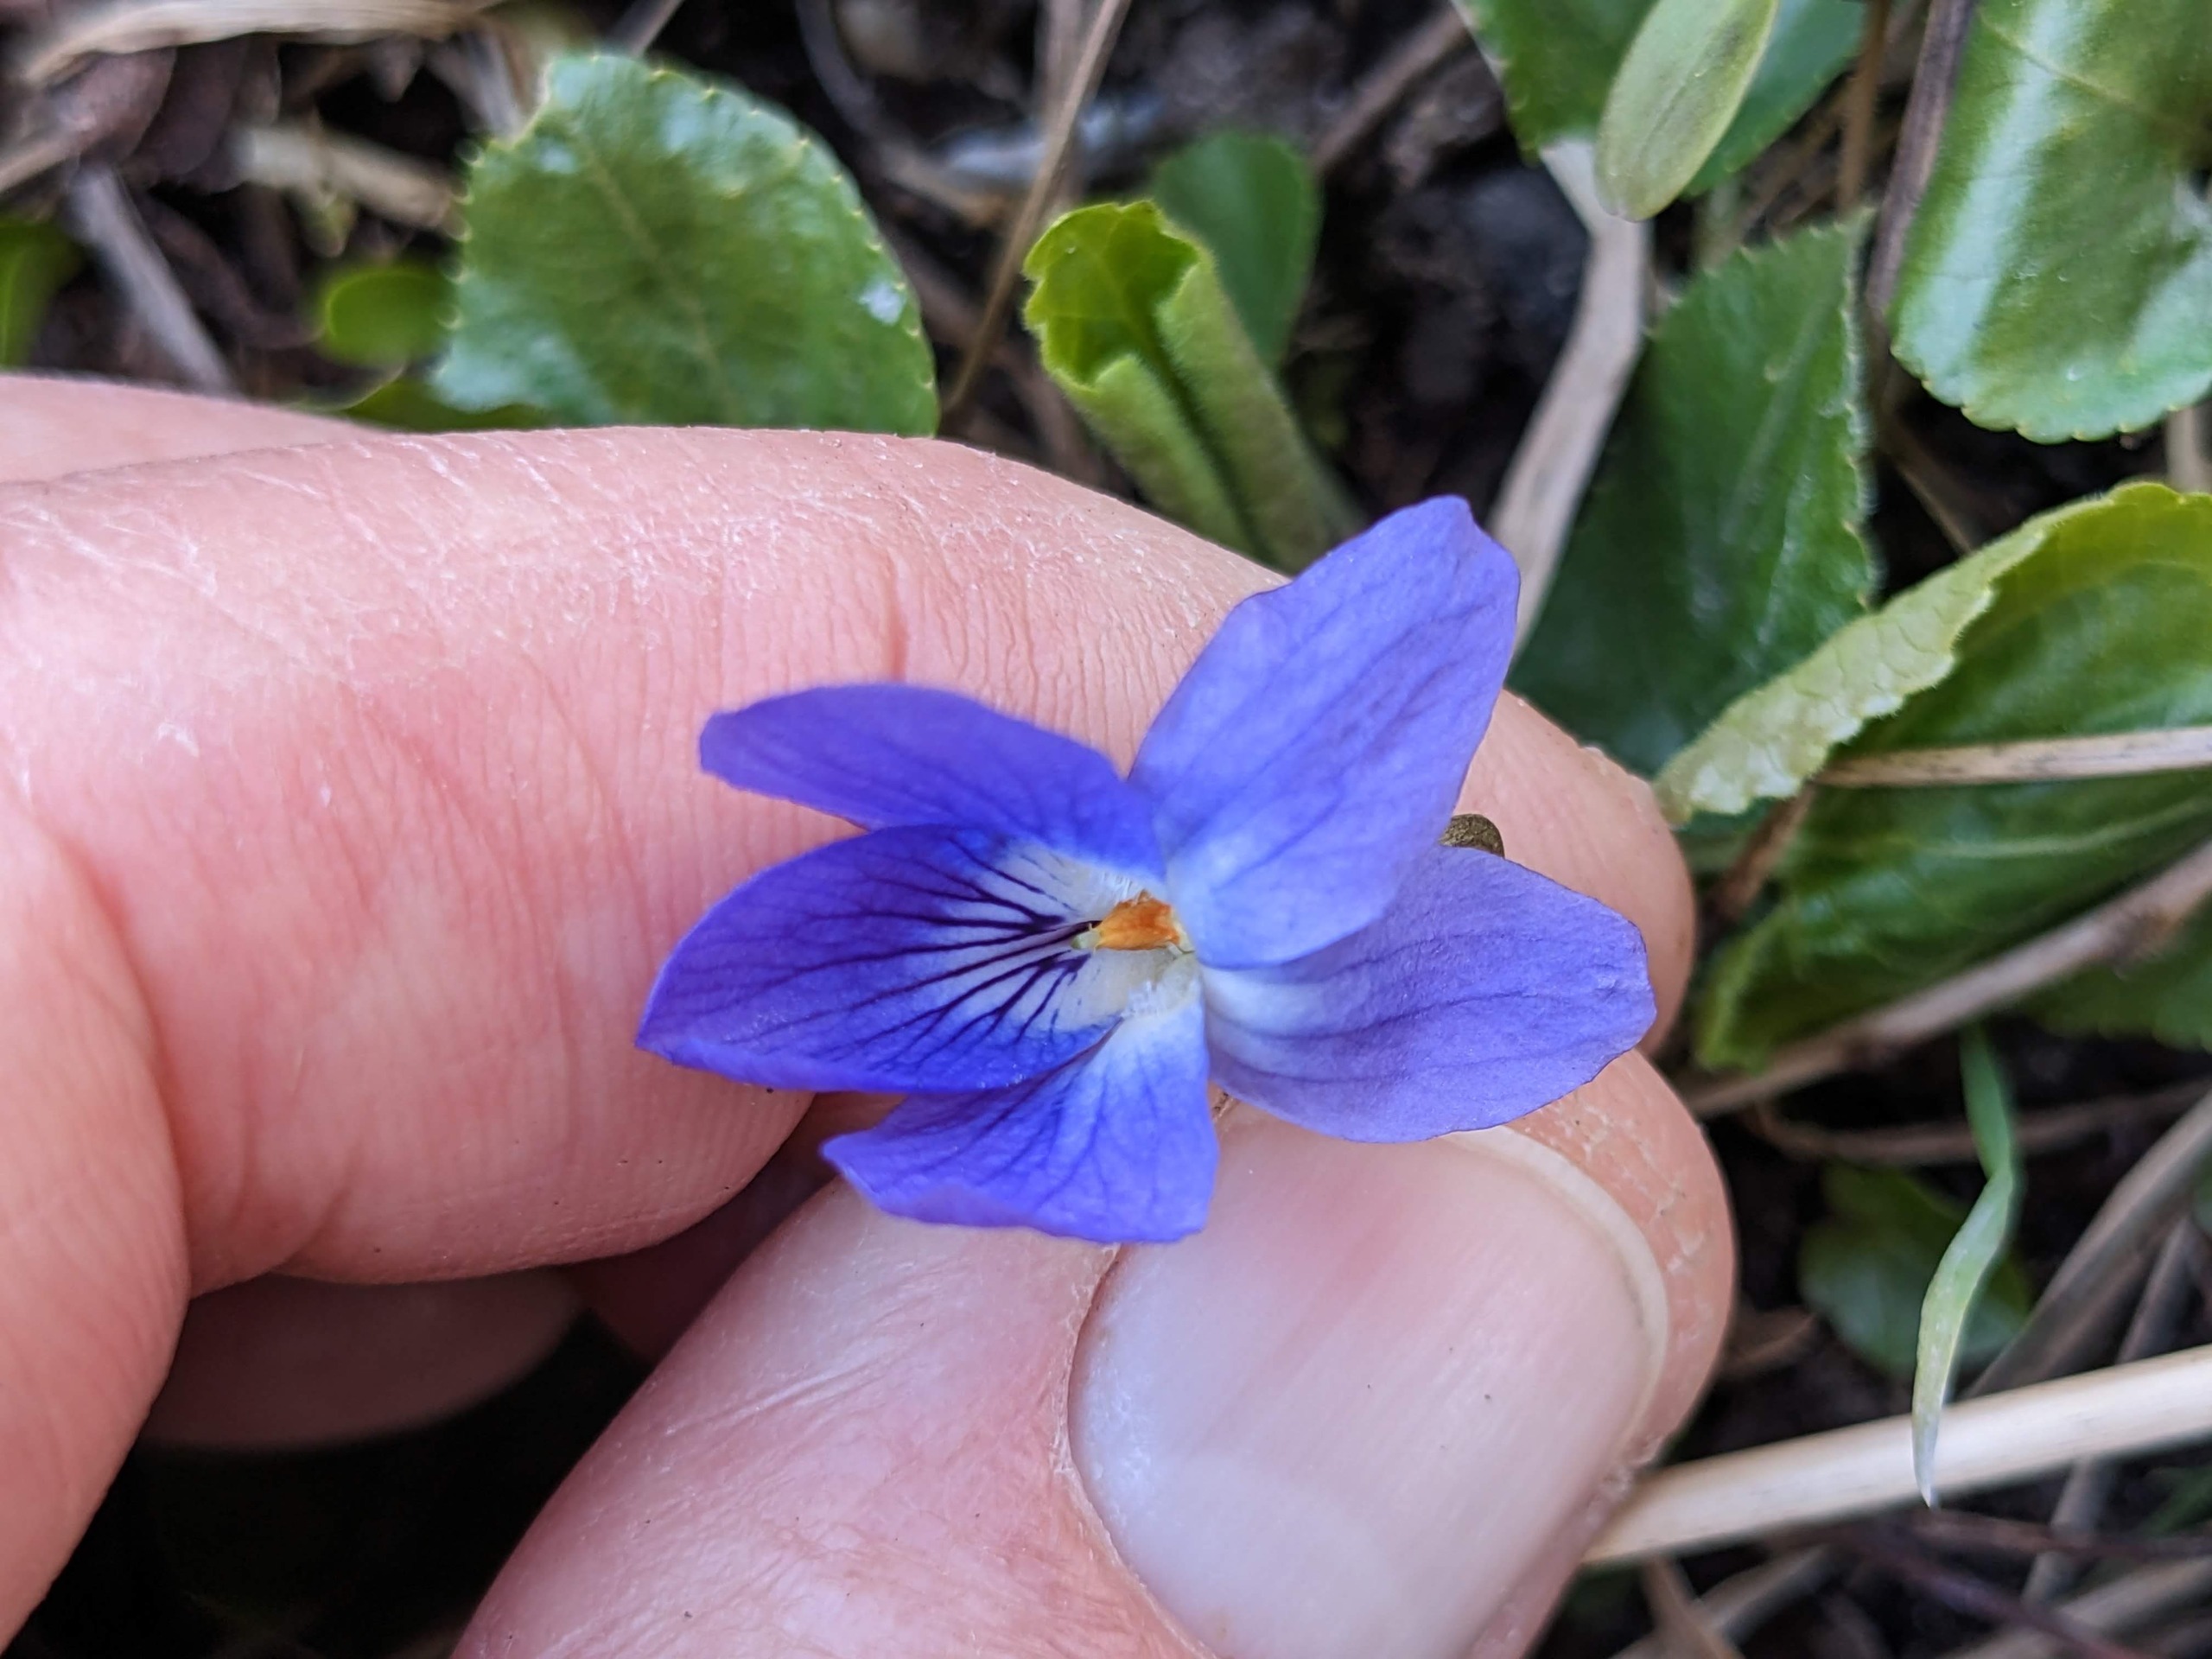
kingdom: Plantae
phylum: Tracheophyta
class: Magnoliopsida
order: Malpighiales
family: Violaceae
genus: Viola
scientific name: Viola odorata
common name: Marts-viol
